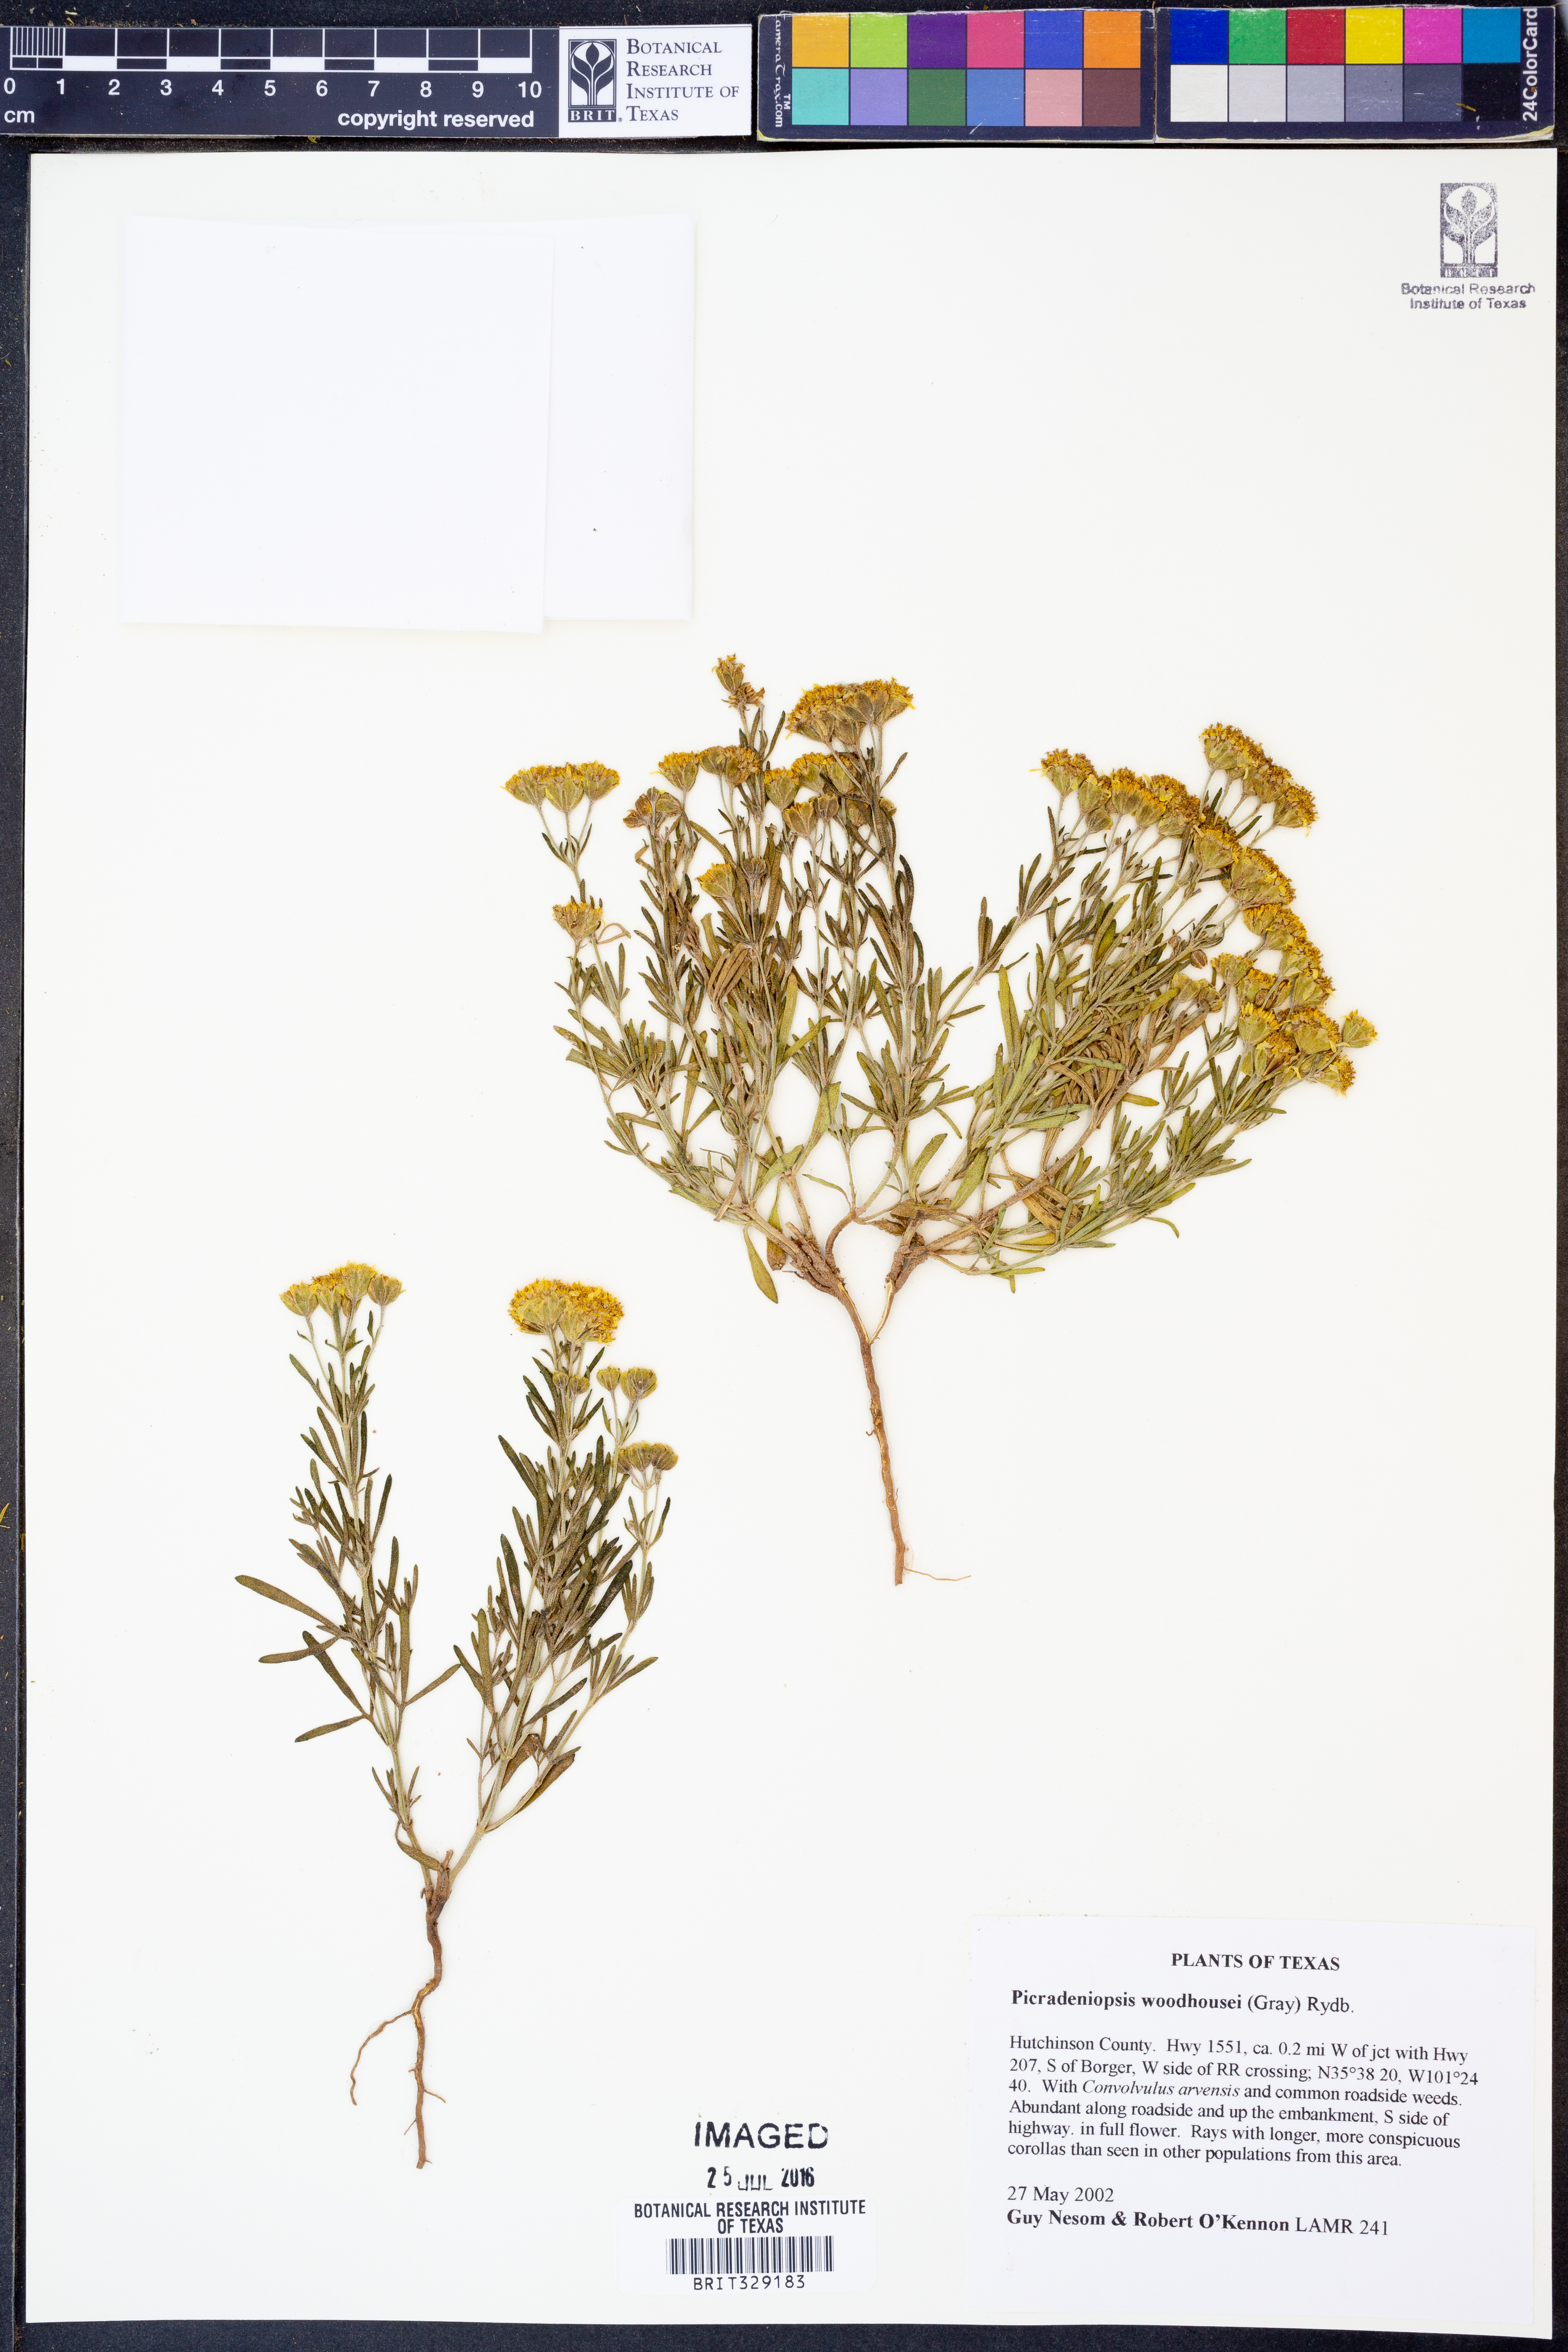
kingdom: Plantae
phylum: Tracheophyta
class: Magnoliopsida
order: Asterales
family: Asteraceae
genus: Picradeniopsis
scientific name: Picradeniopsis woodhousei
